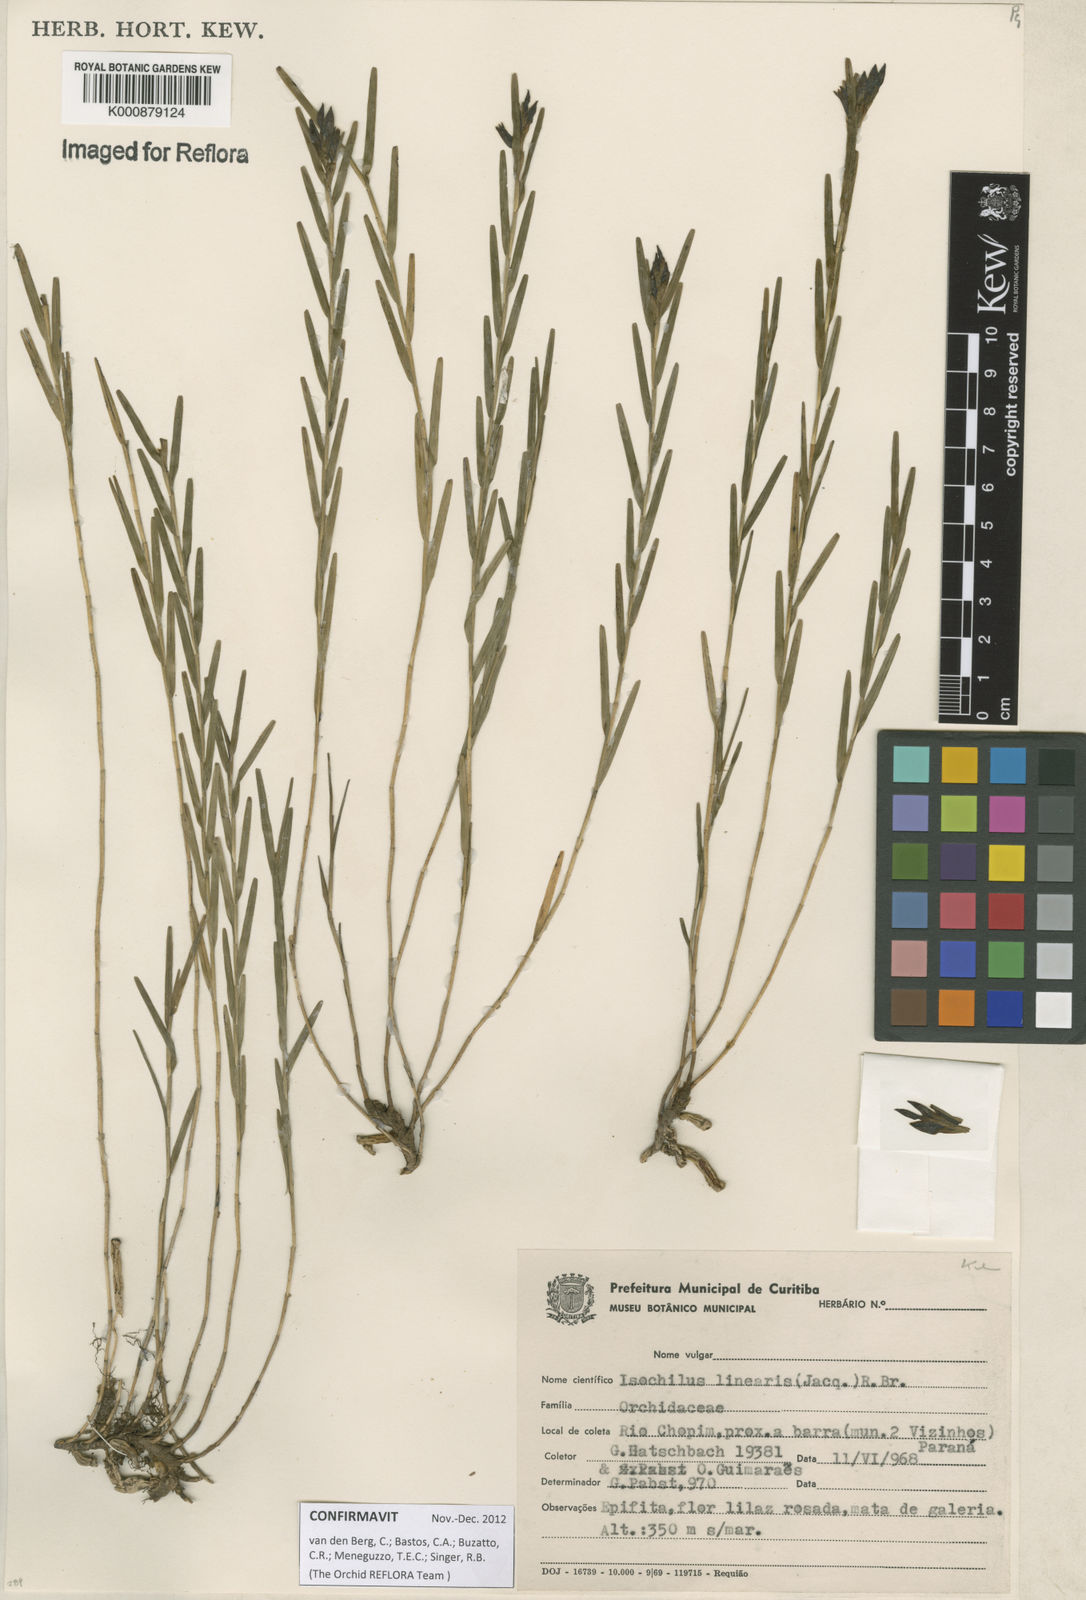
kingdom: Plantae
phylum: Tracheophyta
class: Liliopsida
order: Asparagales
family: Orchidaceae
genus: Isochilus
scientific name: Isochilus linearis
